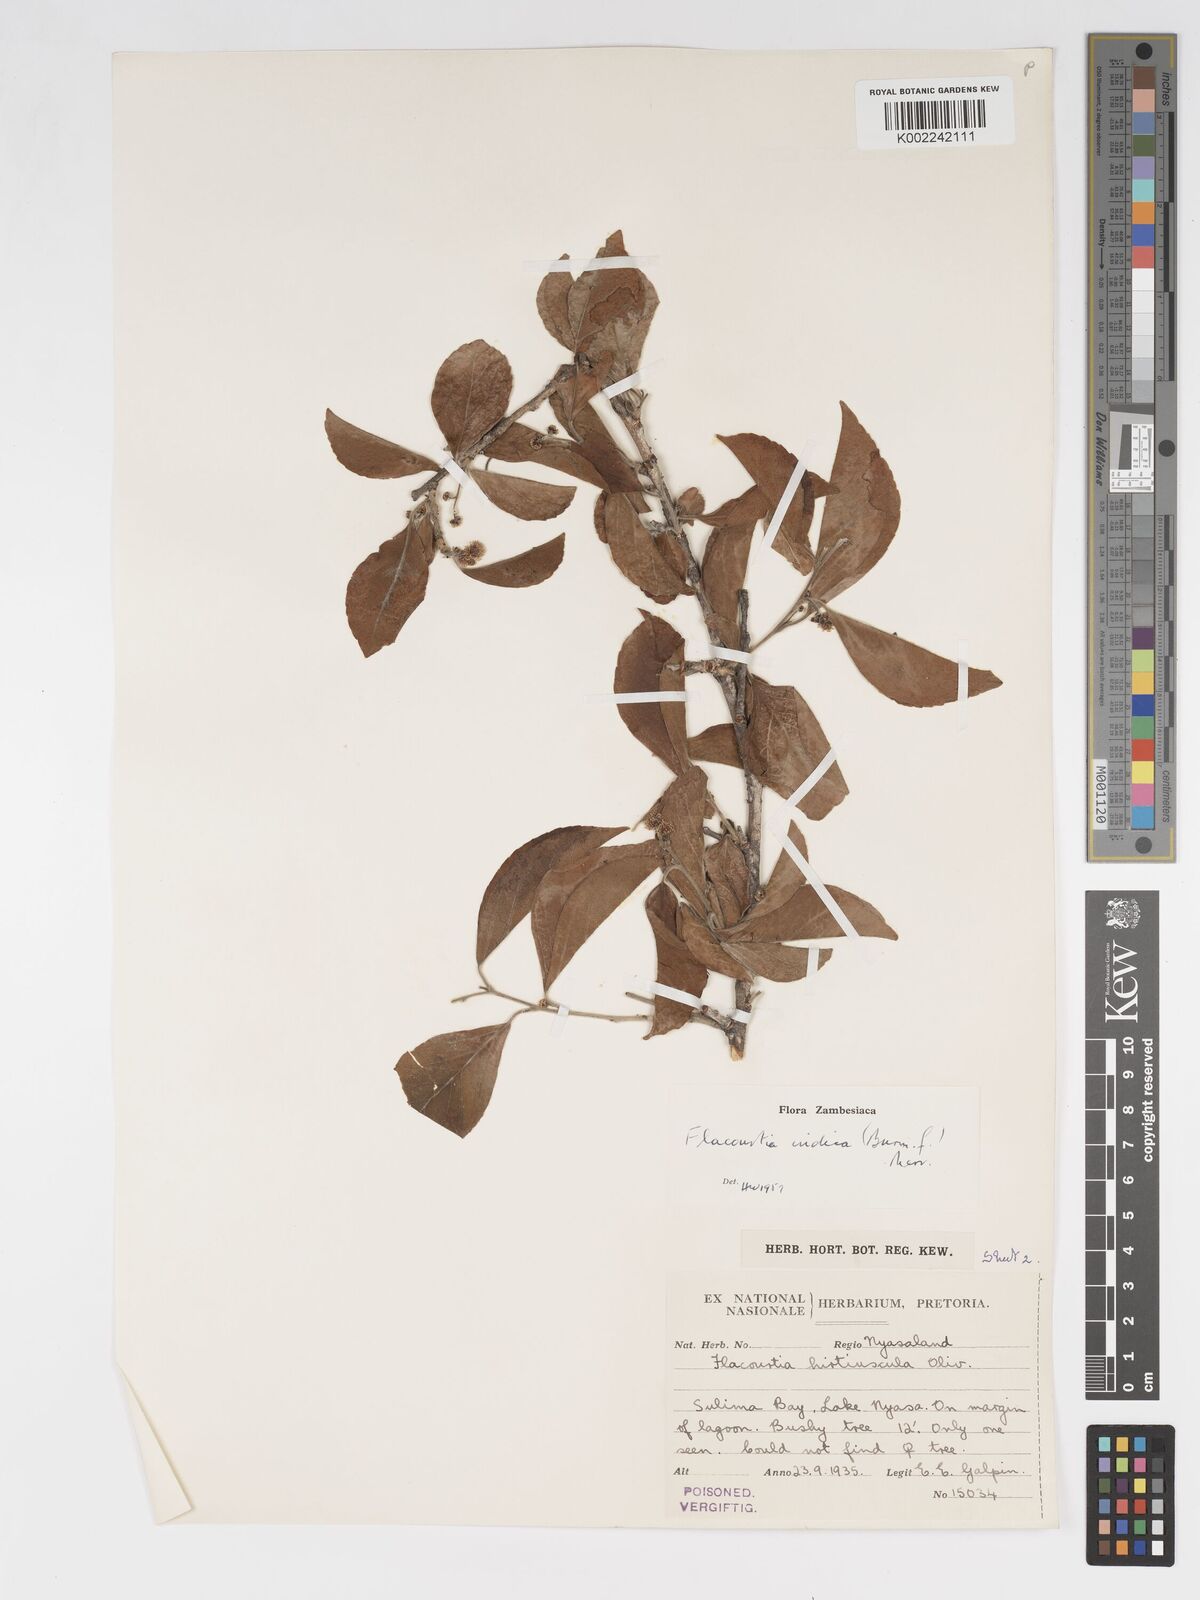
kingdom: Plantae
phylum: Tracheophyta
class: Magnoliopsida
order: Malpighiales
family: Salicaceae
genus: Flacourtia
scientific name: Flacourtia indica
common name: Governor's plum
